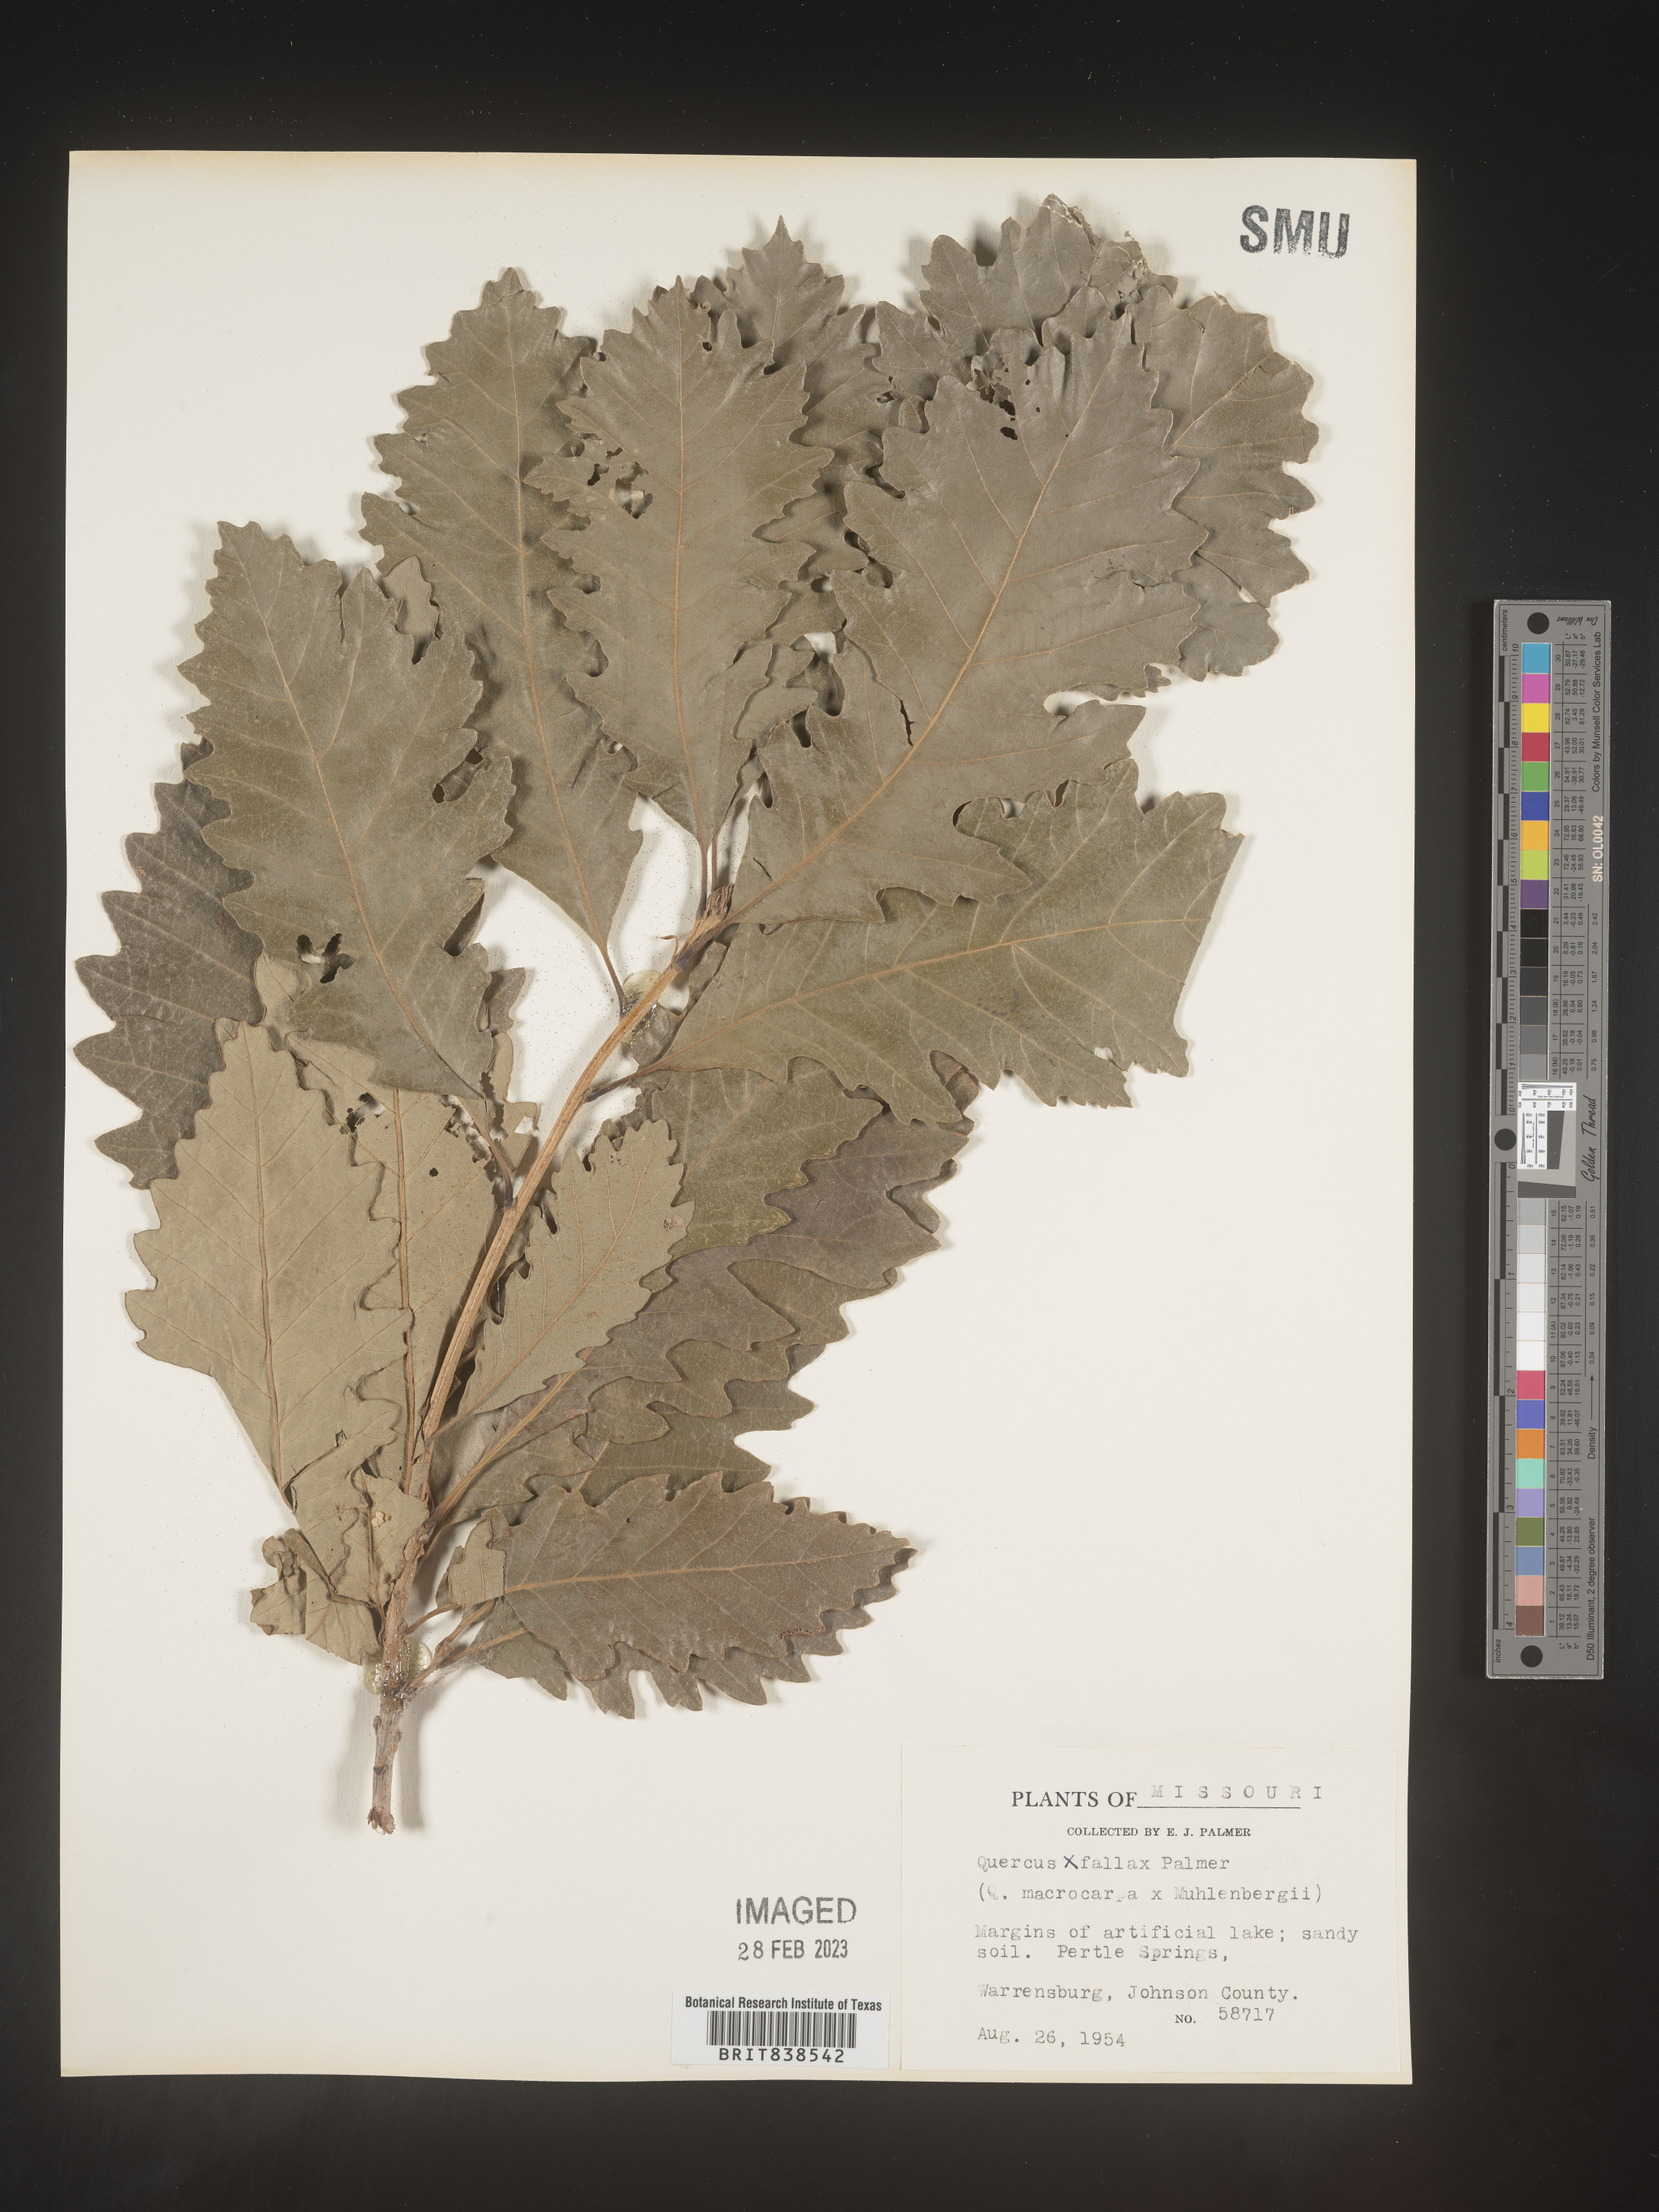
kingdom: Plantae
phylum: Tracheophyta
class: Magnoliopsida
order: Fagales
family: Fagaceae
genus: Quercus
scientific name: Quercus
